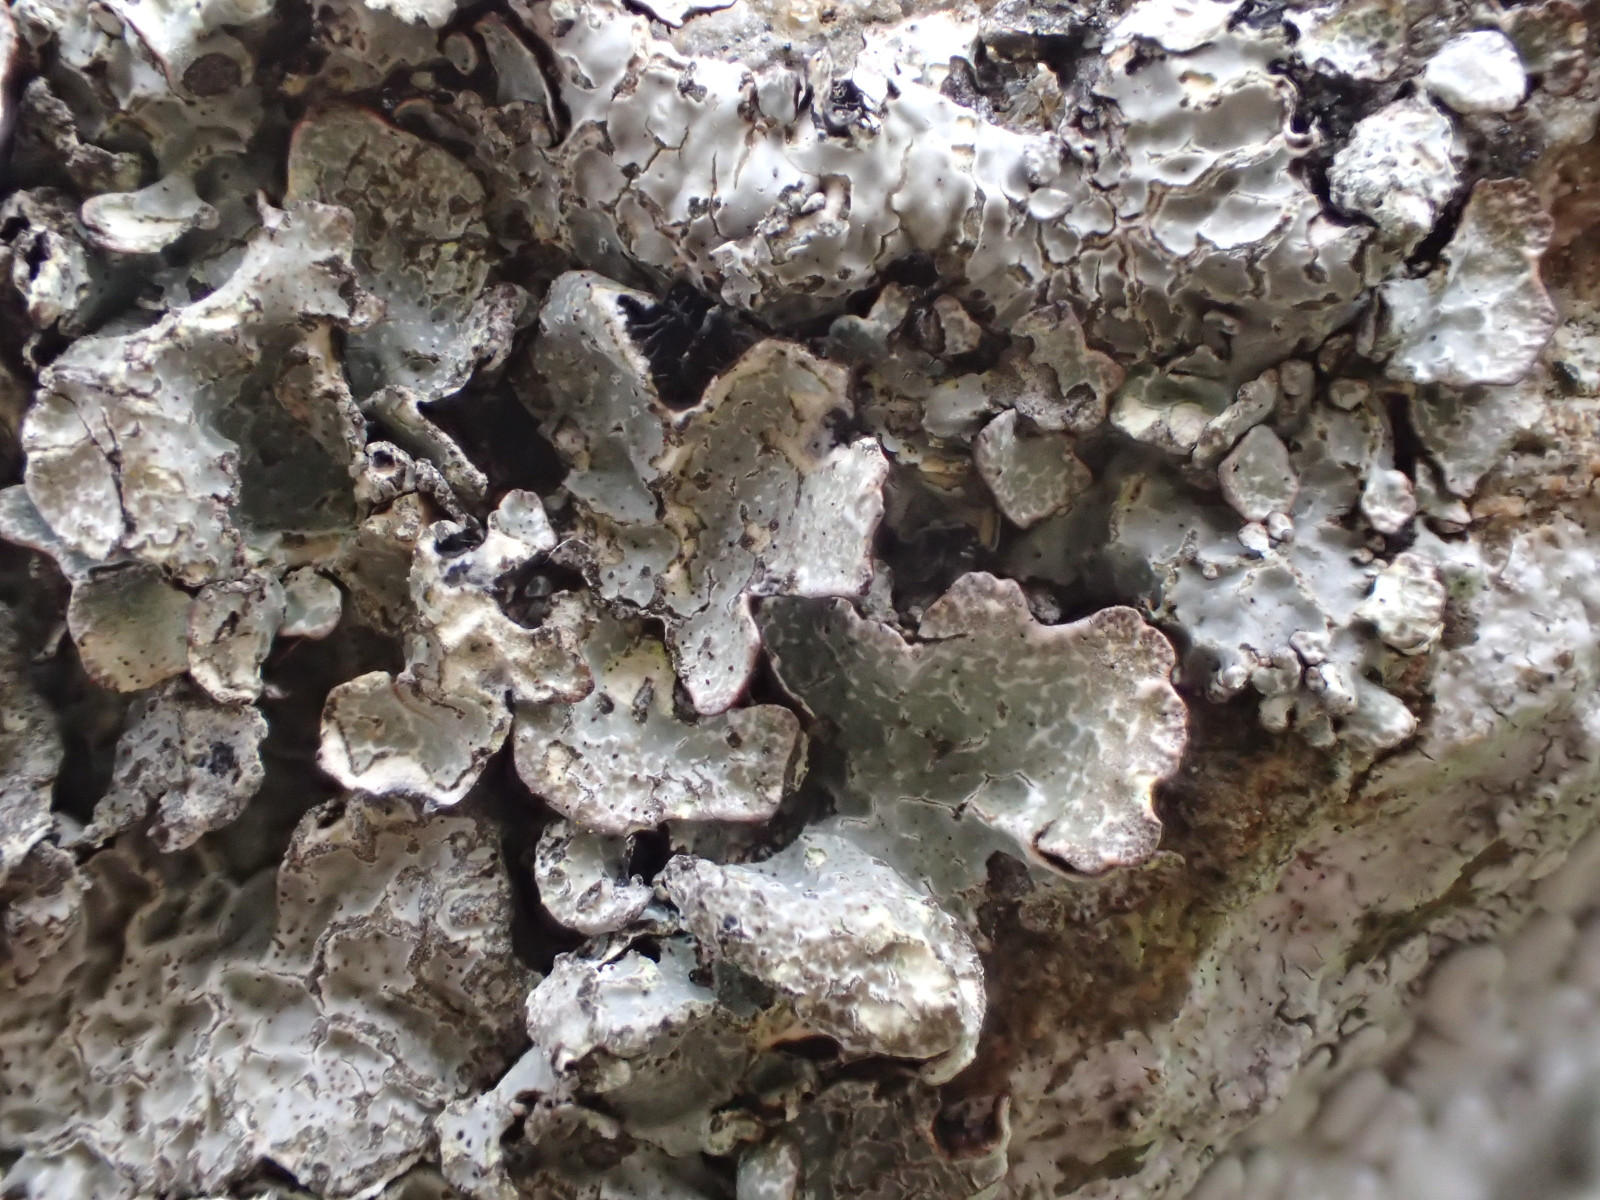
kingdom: Fungi
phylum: Ascomycota
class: Lecanoromycetes
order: Lecanorales
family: Parmeliaceae
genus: Parmelia
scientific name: Parmelia sulcata
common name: rynket skållav
